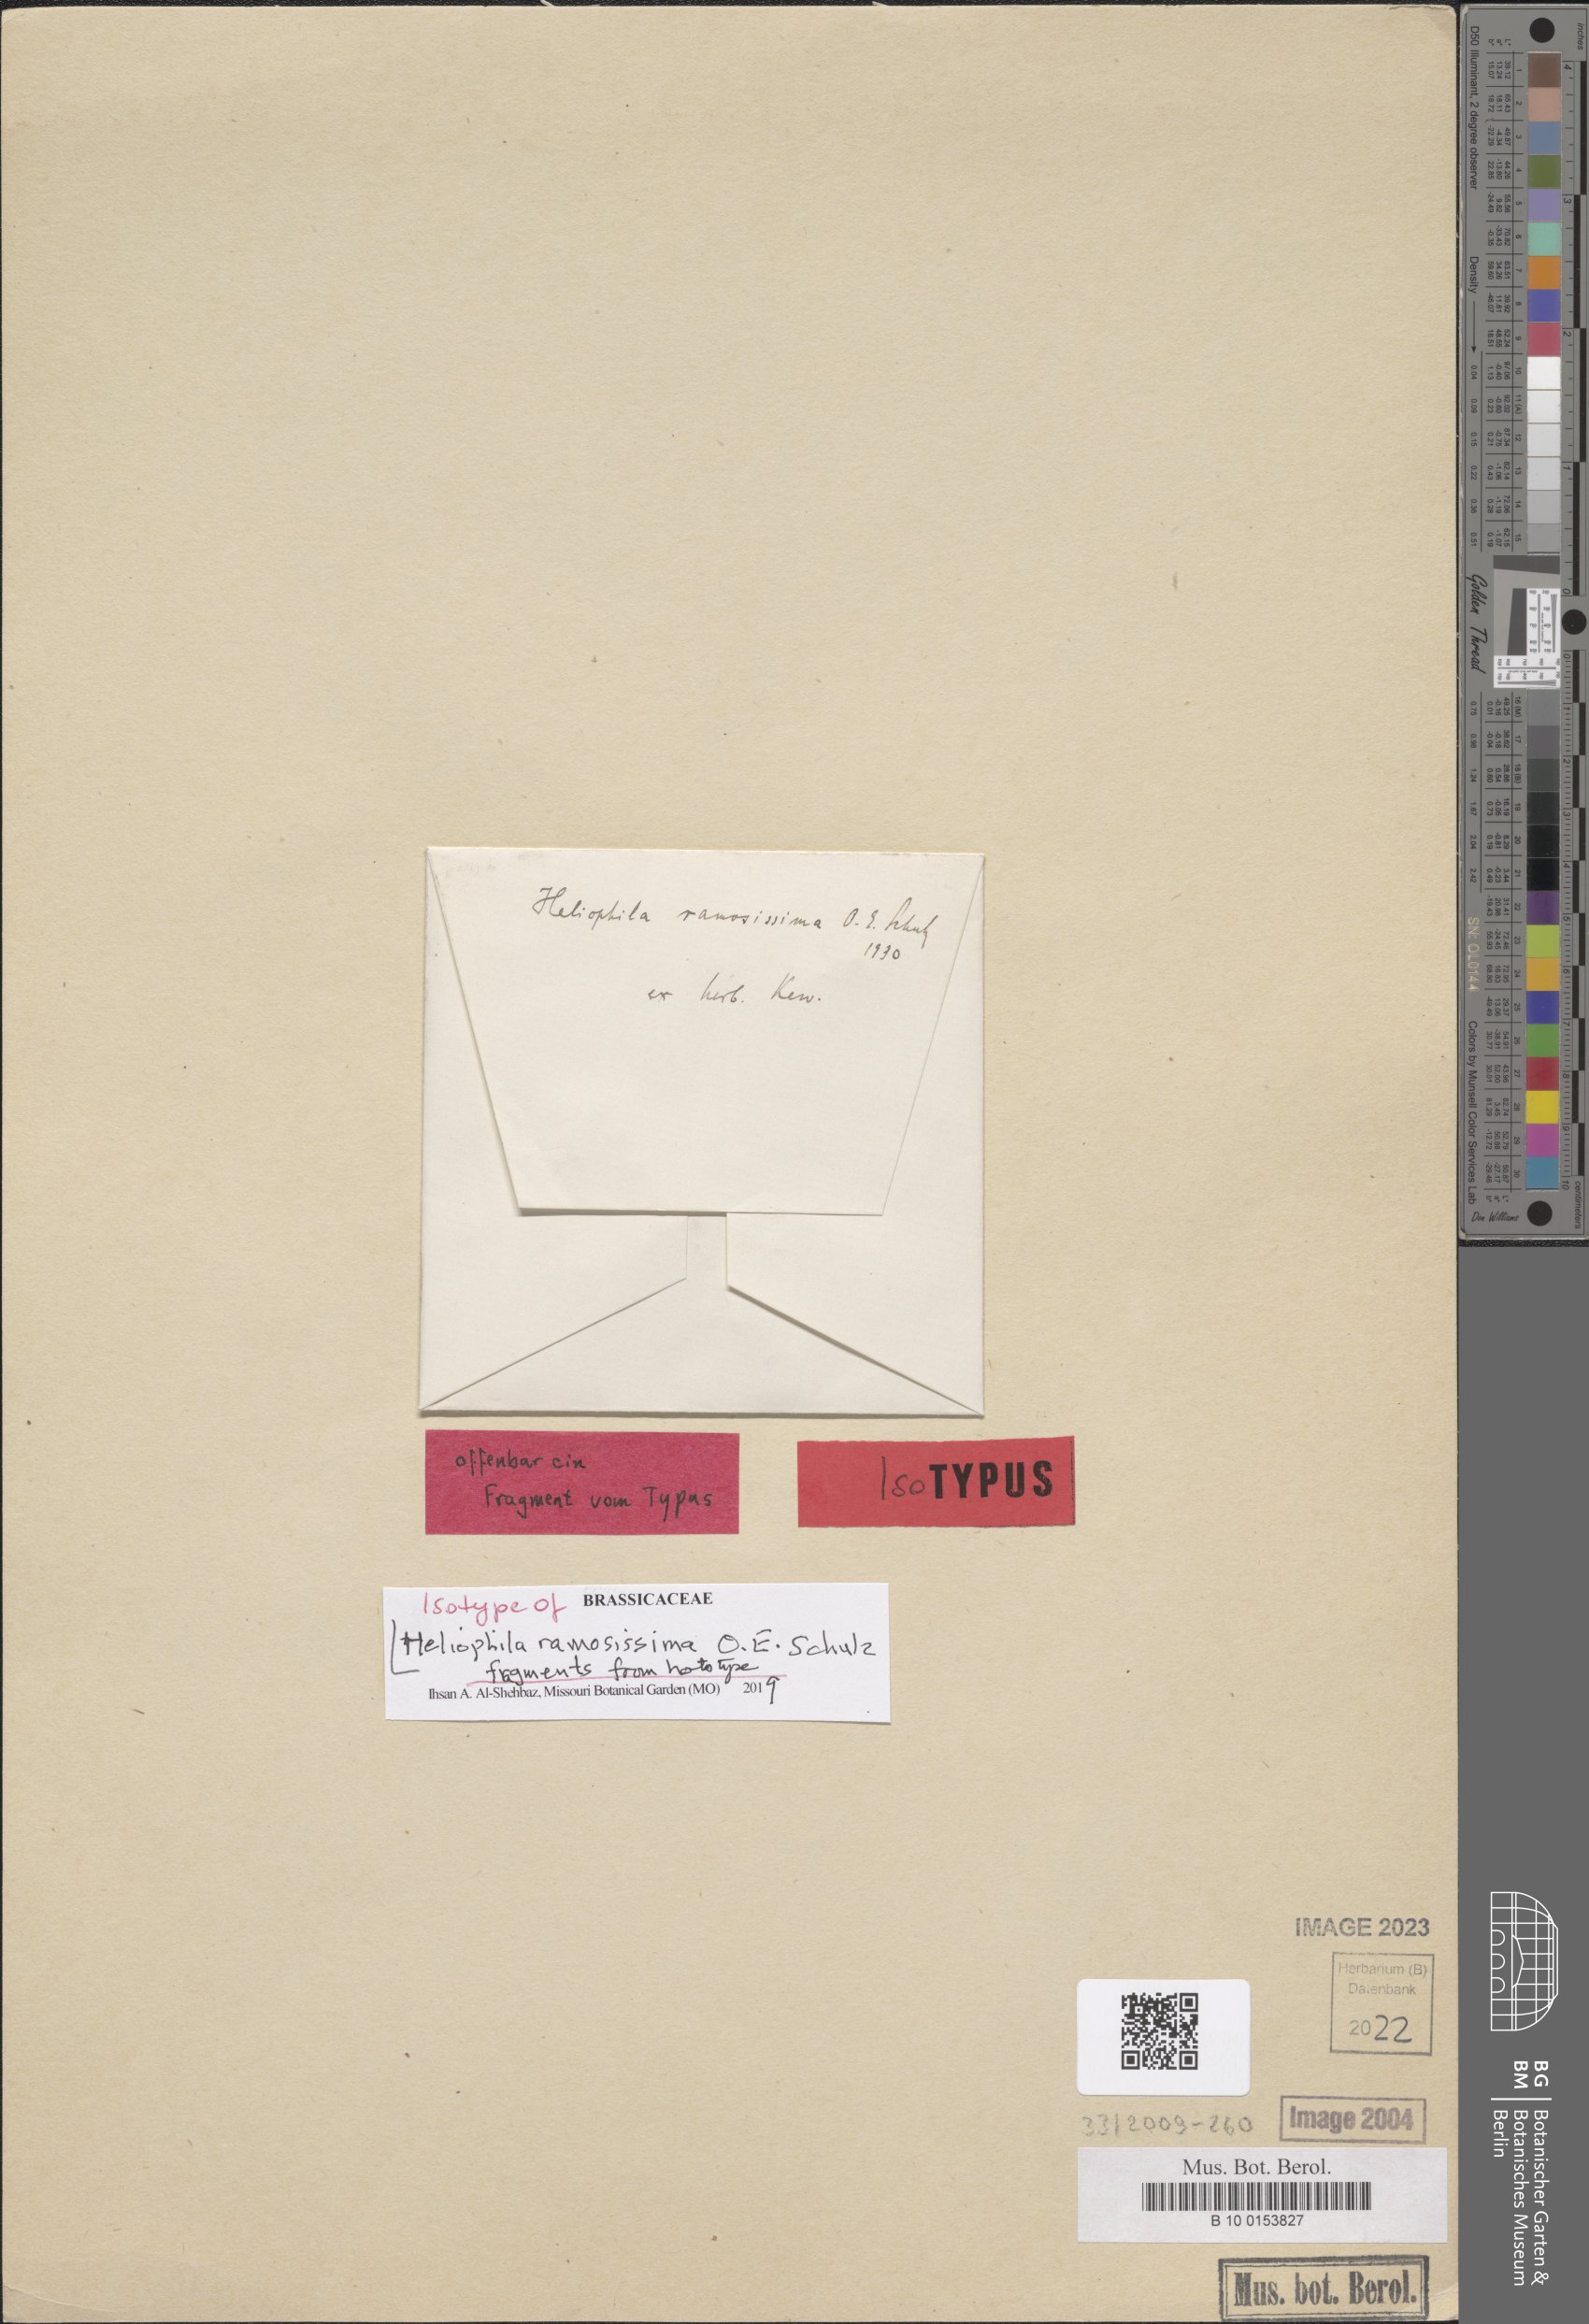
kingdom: Plantae
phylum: Tracheophyta
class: Magnoliopsida
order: Brassicales
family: Brassicaceae
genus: Heliophila
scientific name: Heliophila ramosissima
